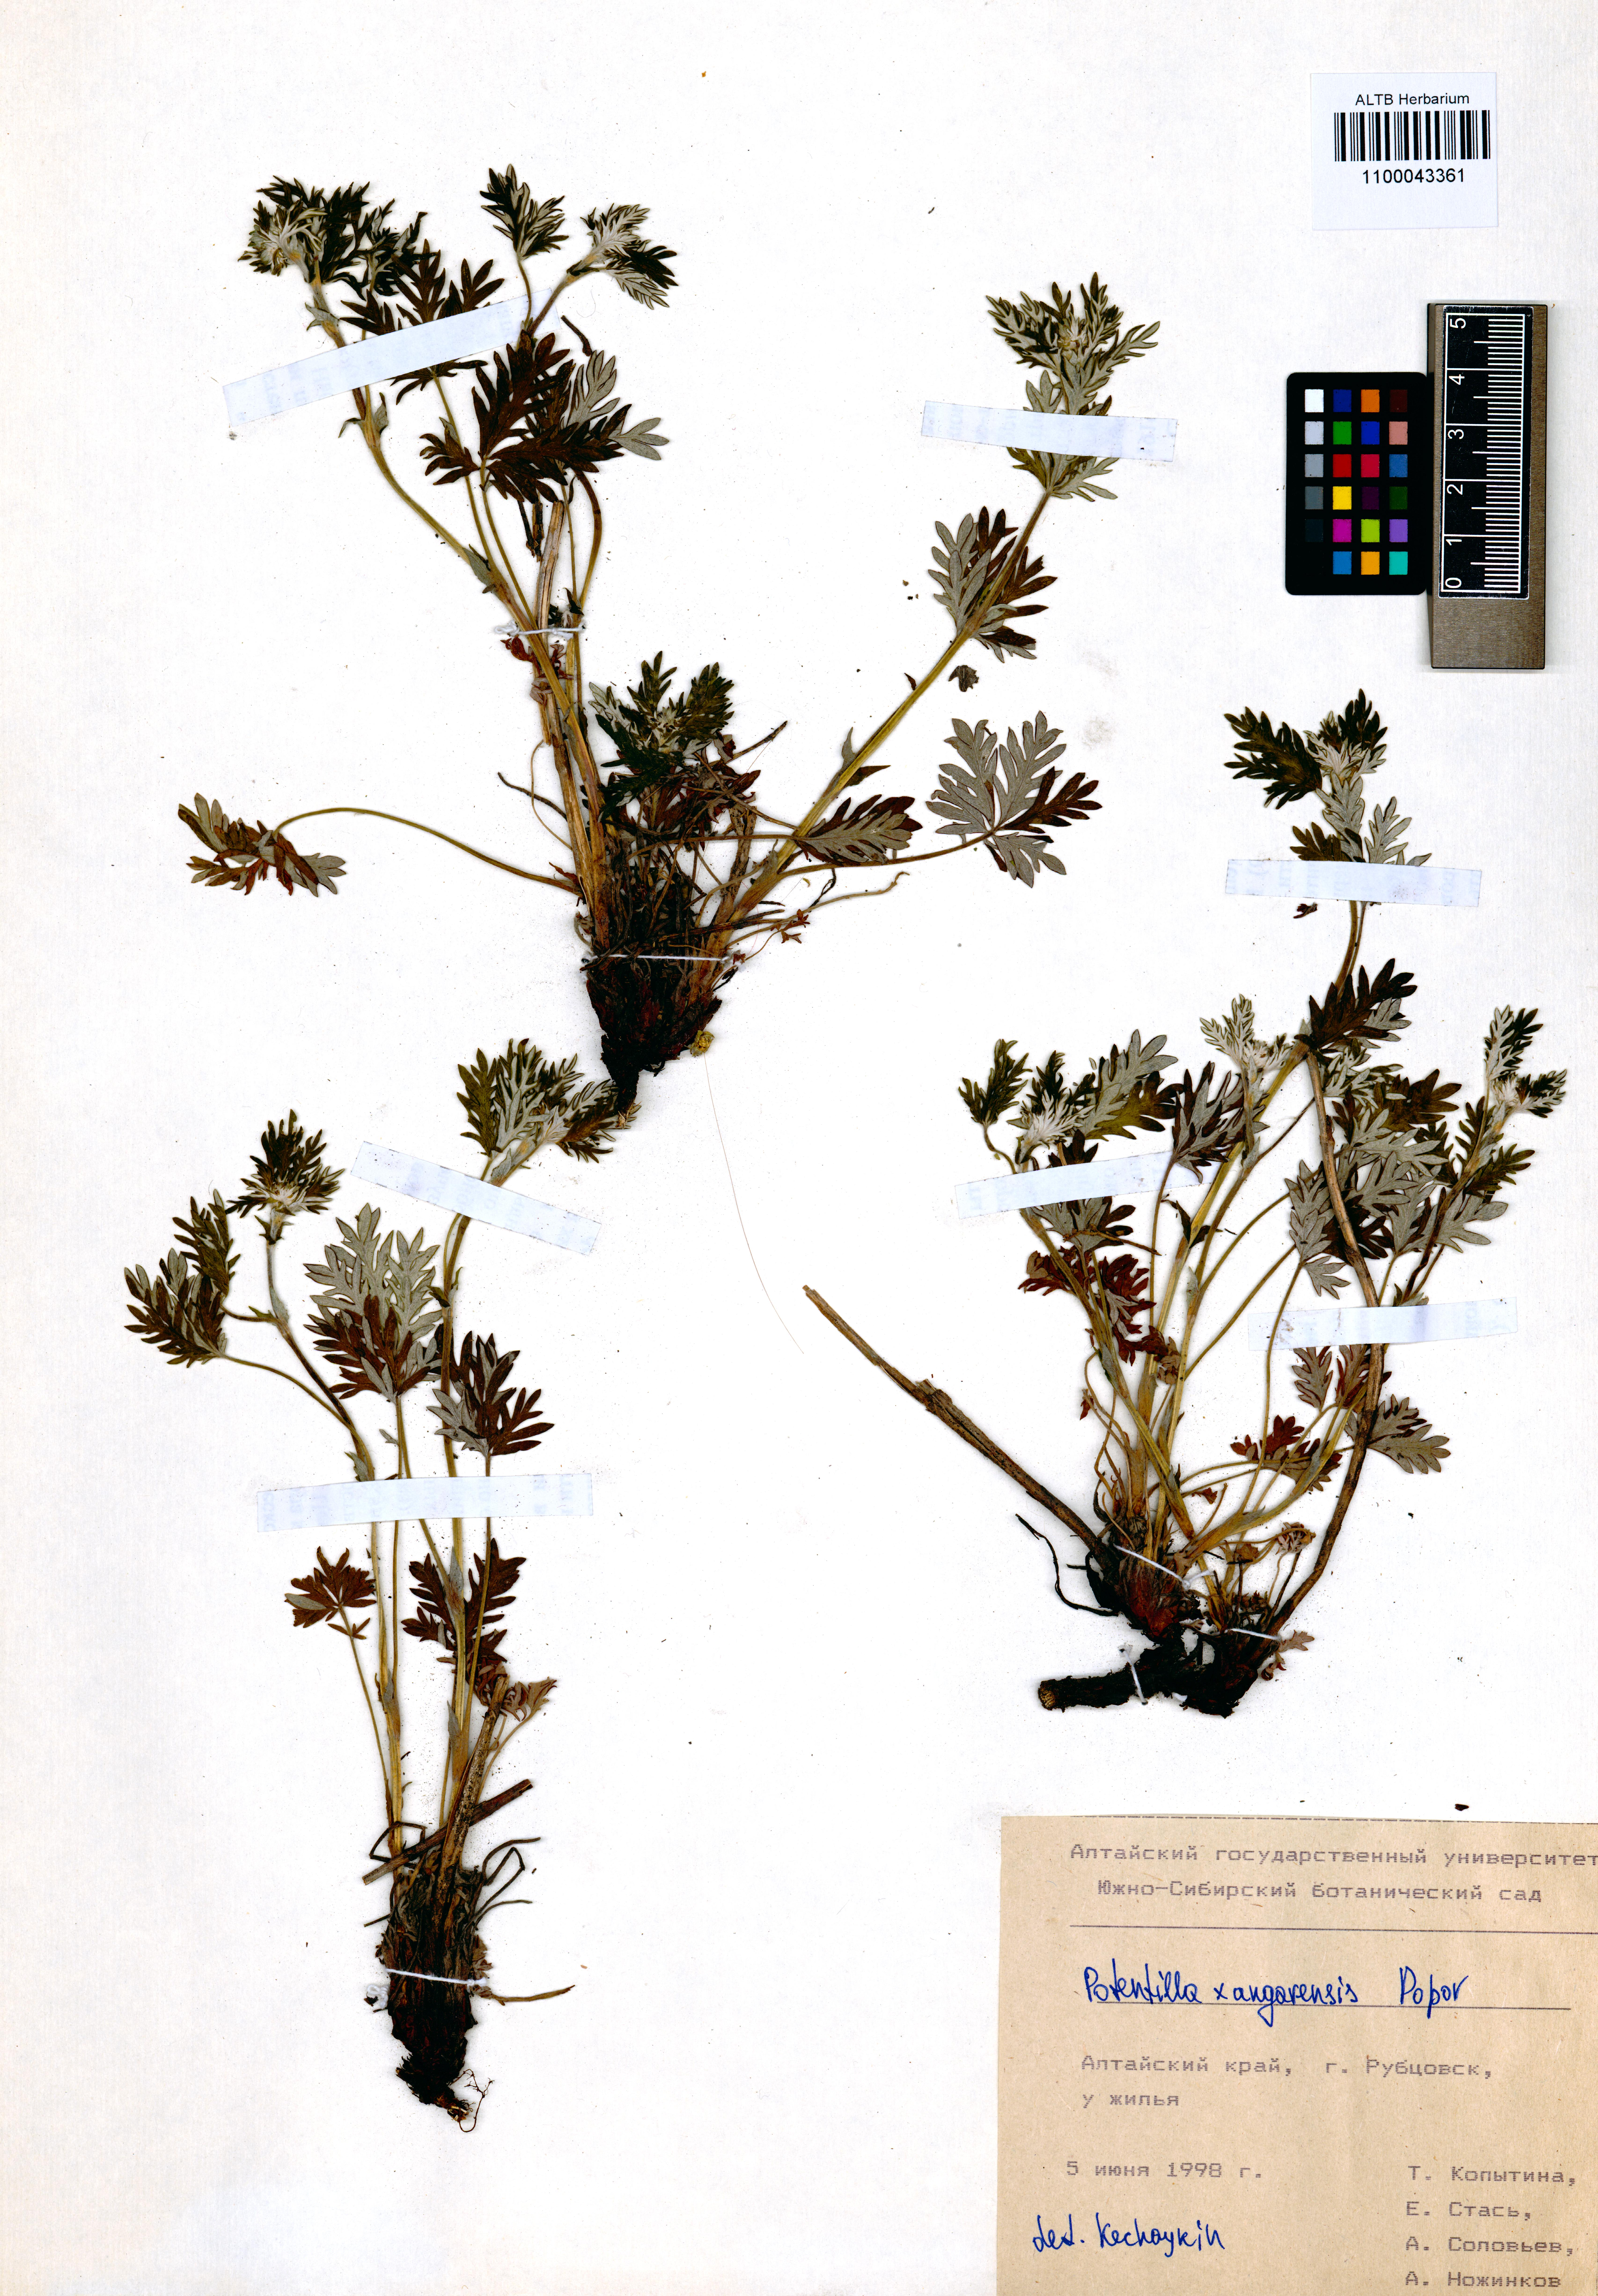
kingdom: Plantae
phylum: Tracheophyta
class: Magnoliopsida
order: Rosales
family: Rosaceae
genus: Potentilla
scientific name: Potentilla angarensis
